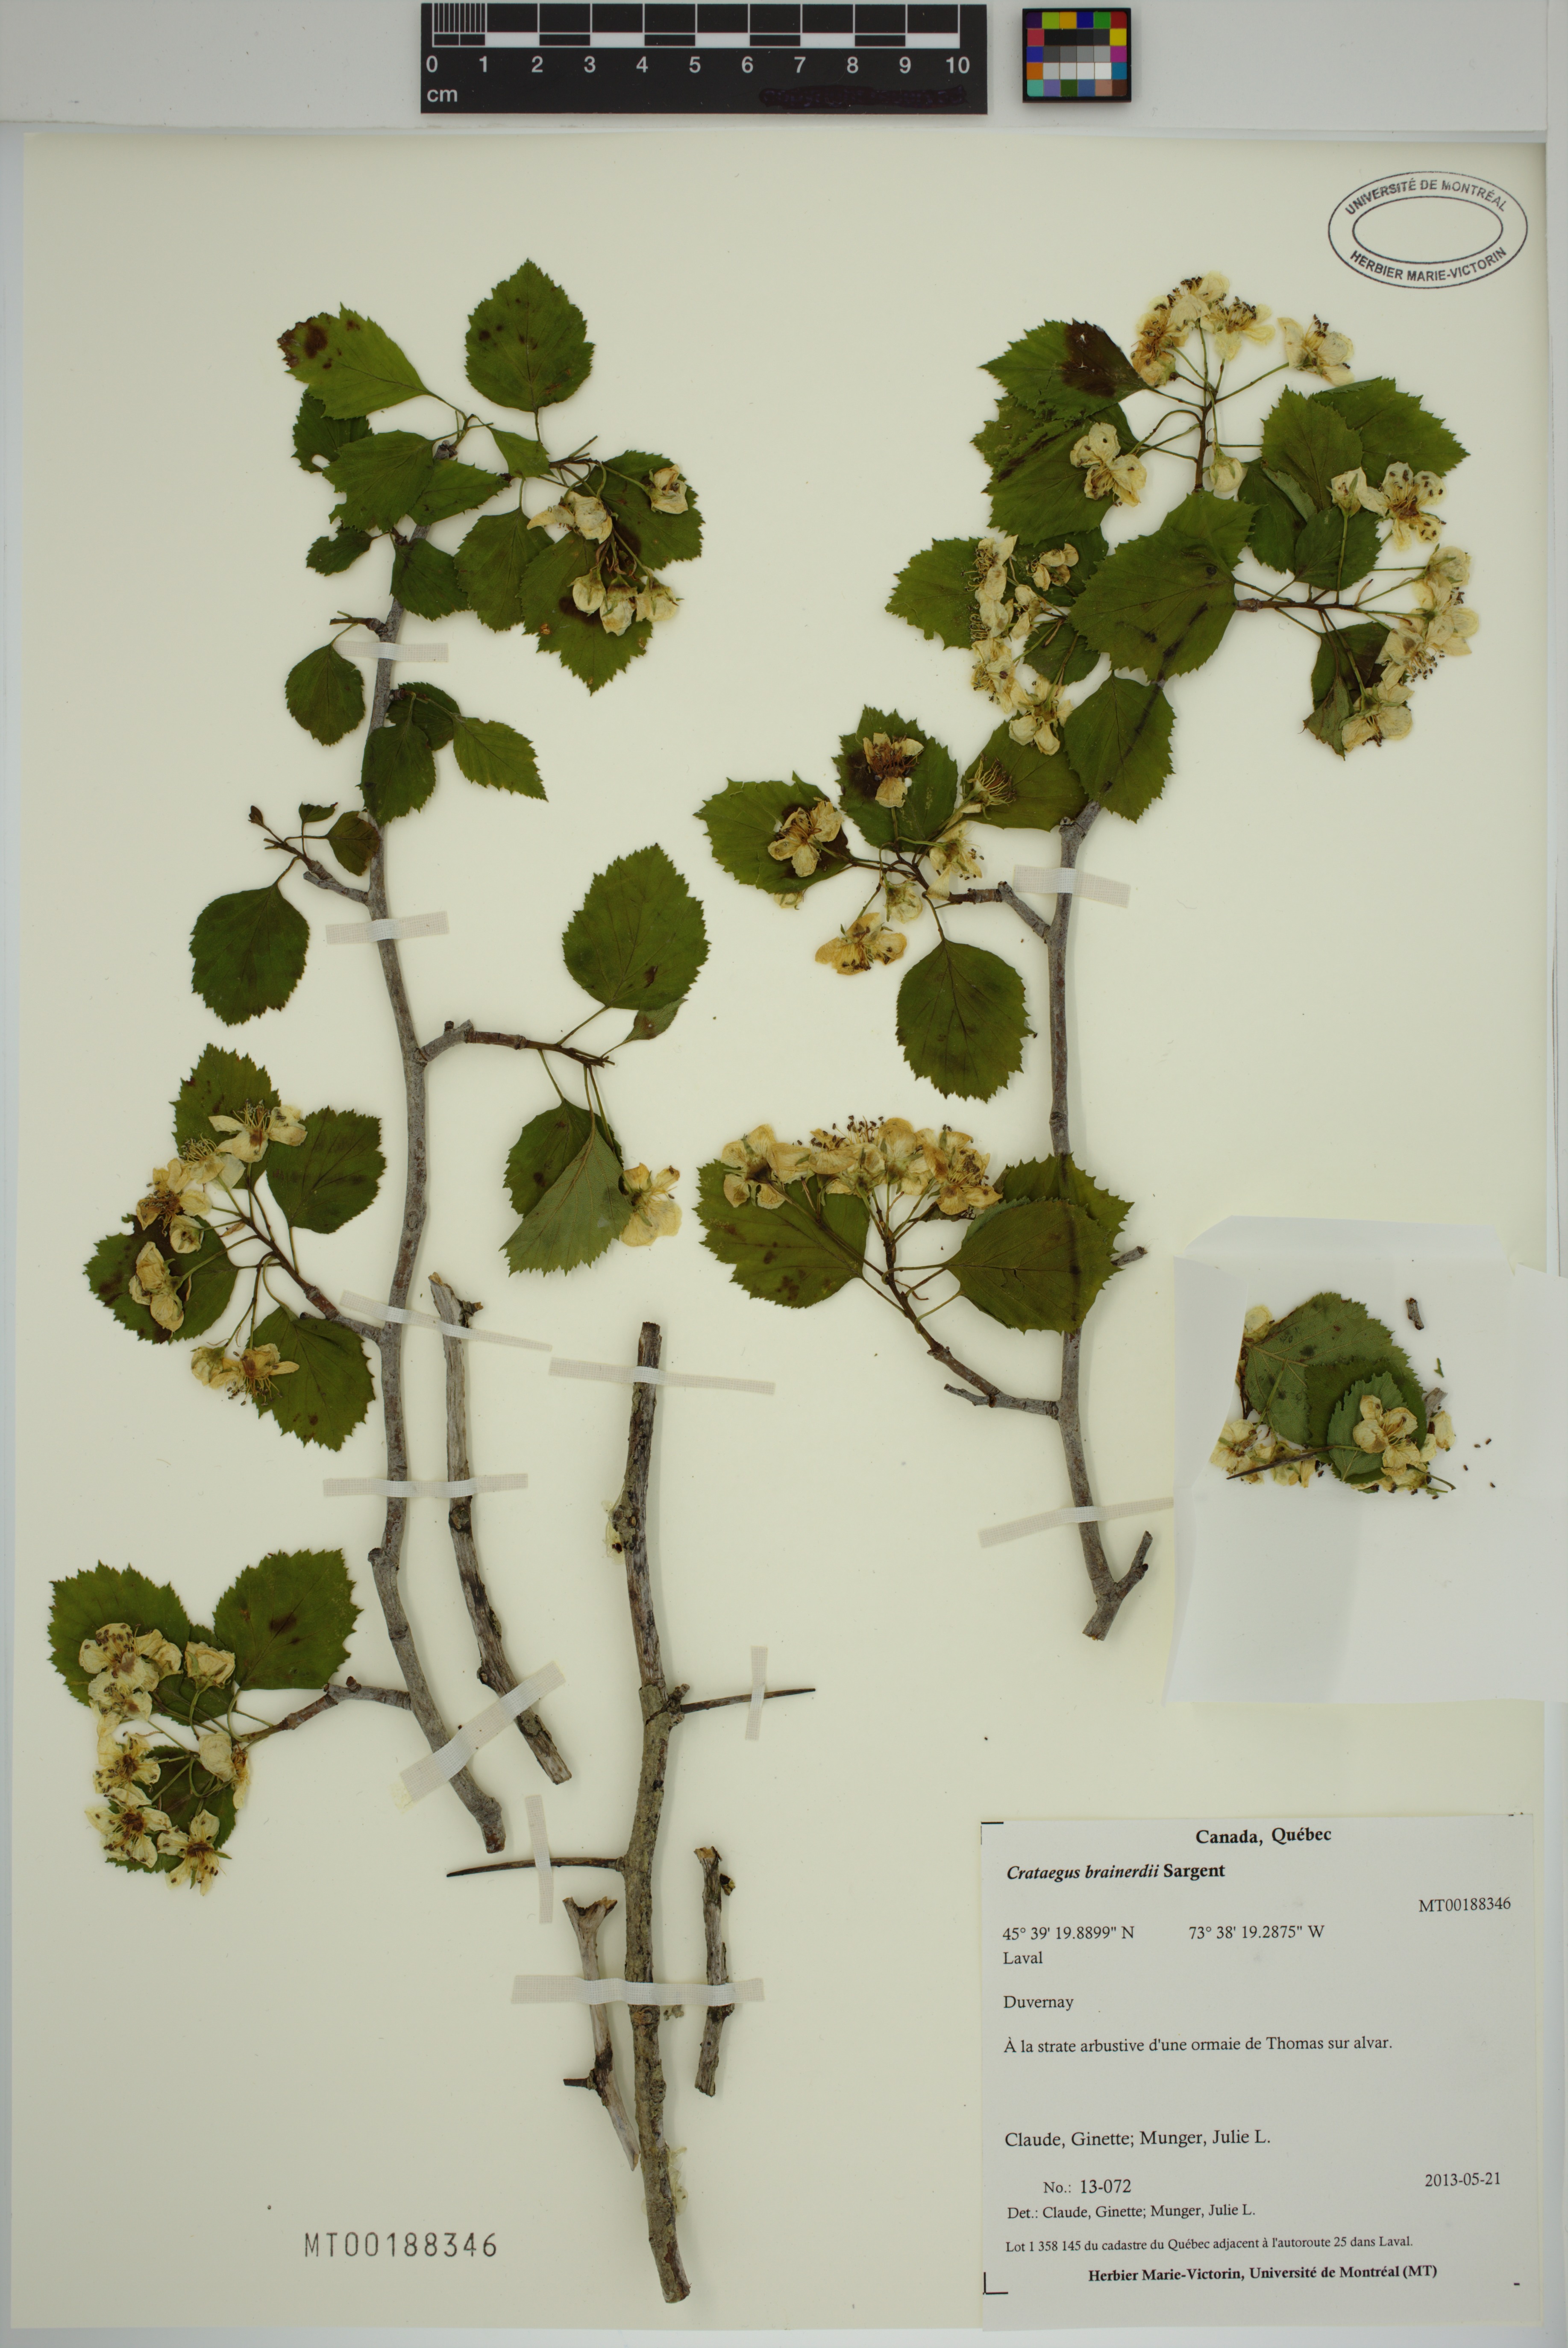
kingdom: Plantae
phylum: Tracheophyta
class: Magnoliopsida
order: Rosales
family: Rosaceae
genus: Crataegus
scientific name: Crataegus suborbiculata
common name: Caughnawaga hawthorn
